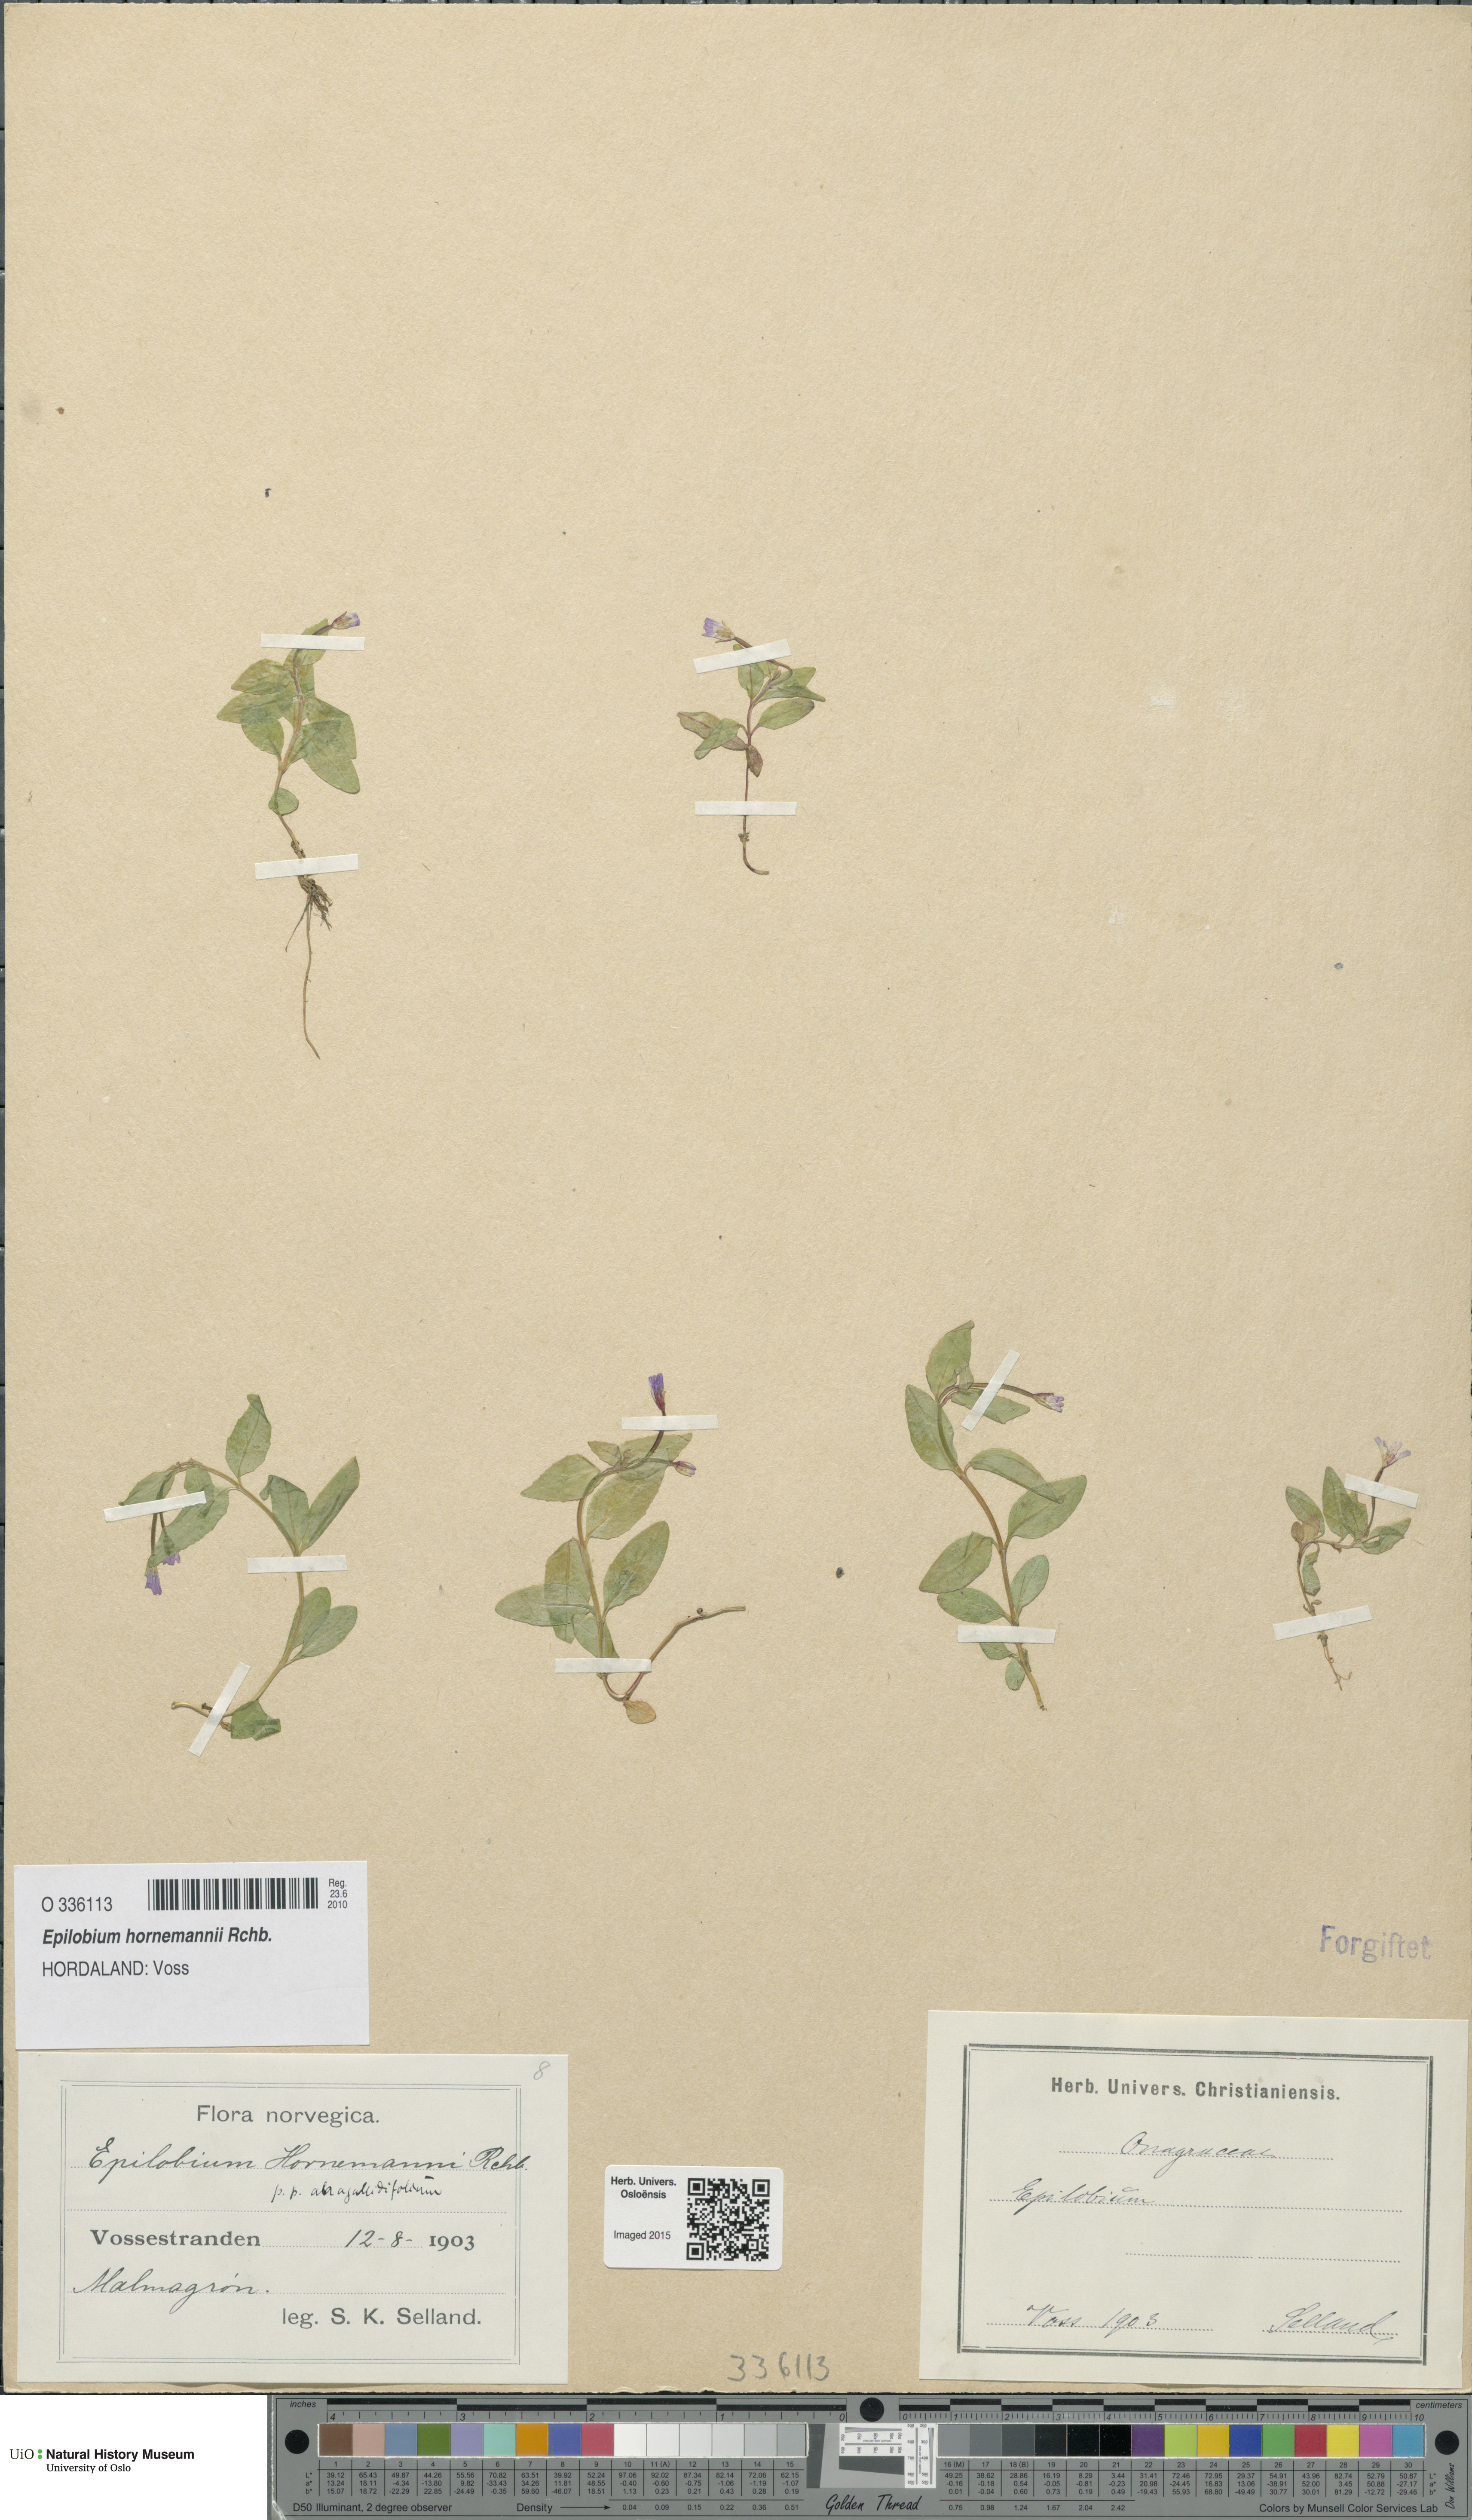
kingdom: Plantae
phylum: Tracheophyta
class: Magnoliopsida
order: Myrtales
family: Onagraceae
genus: Epilobium
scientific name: Epilobium hornemannii
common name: Hornemann's willowherb
